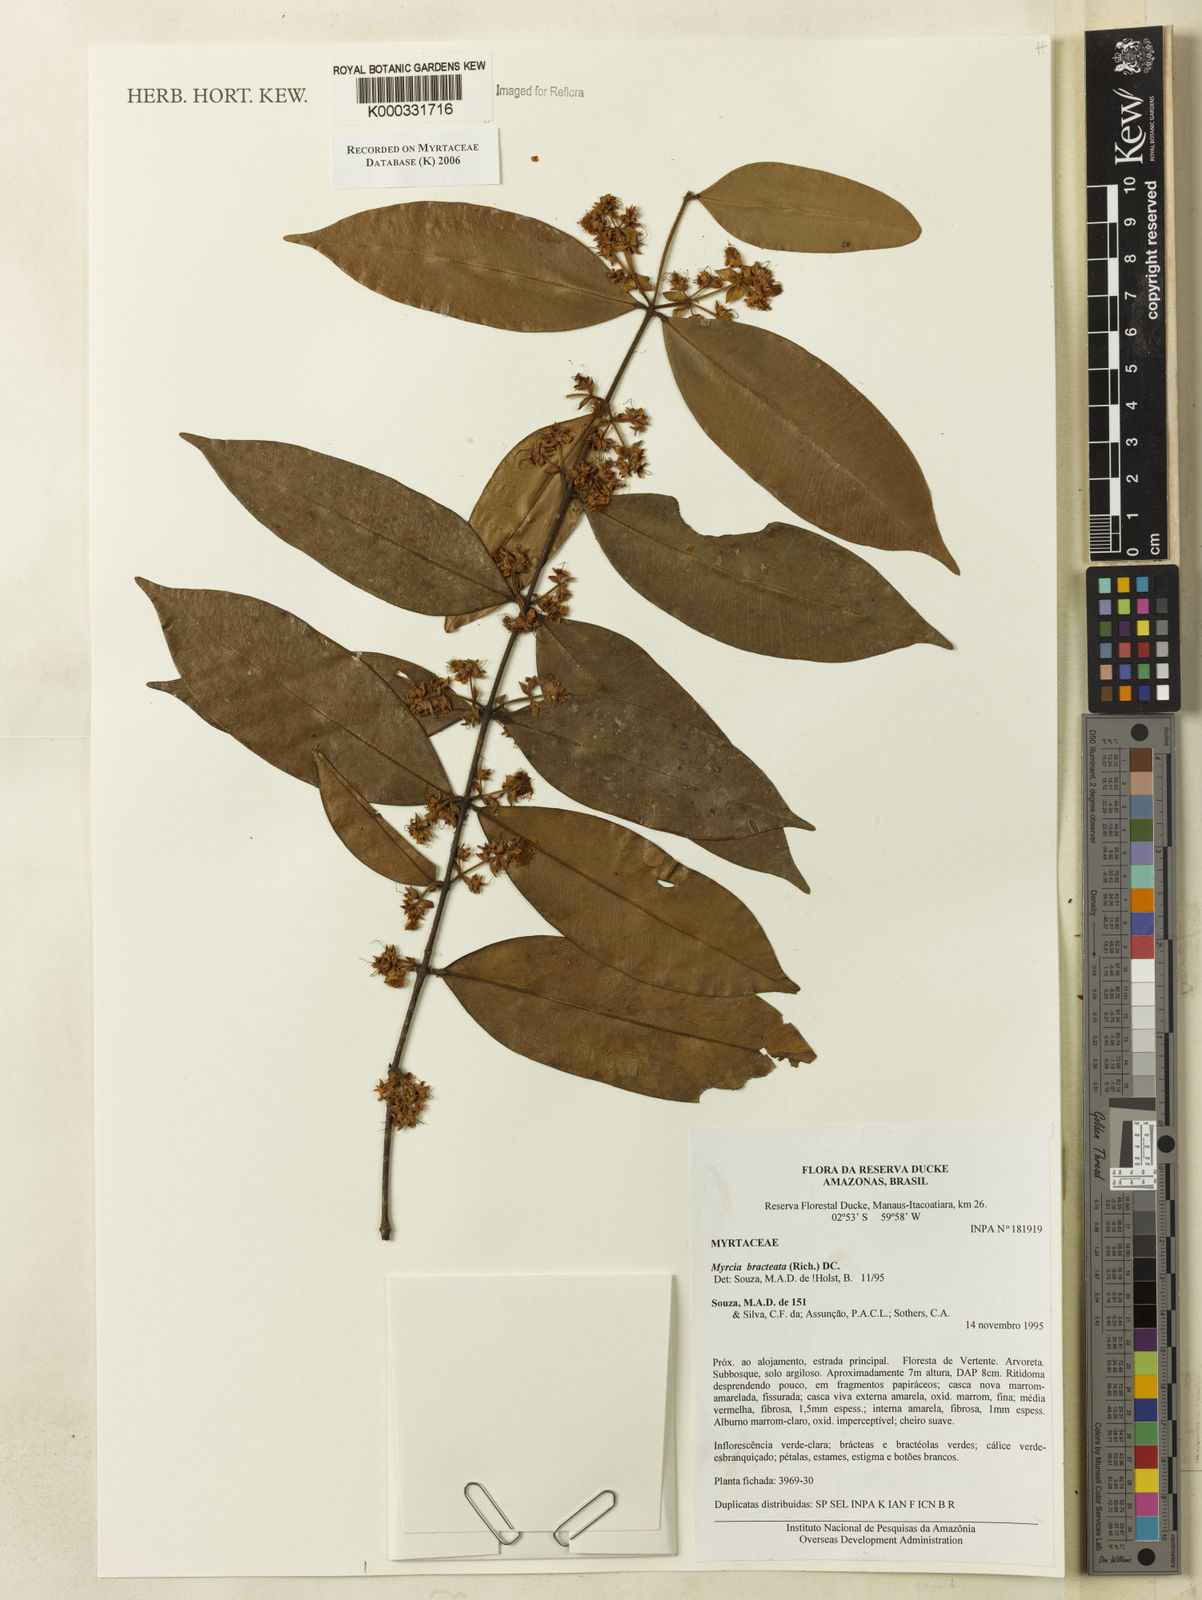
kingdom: Plantae
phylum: Tracheophyta
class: Magnoliopsida
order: Myrtales
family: Myrtaceae
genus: Myrcia
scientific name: Myrcia bracteata
